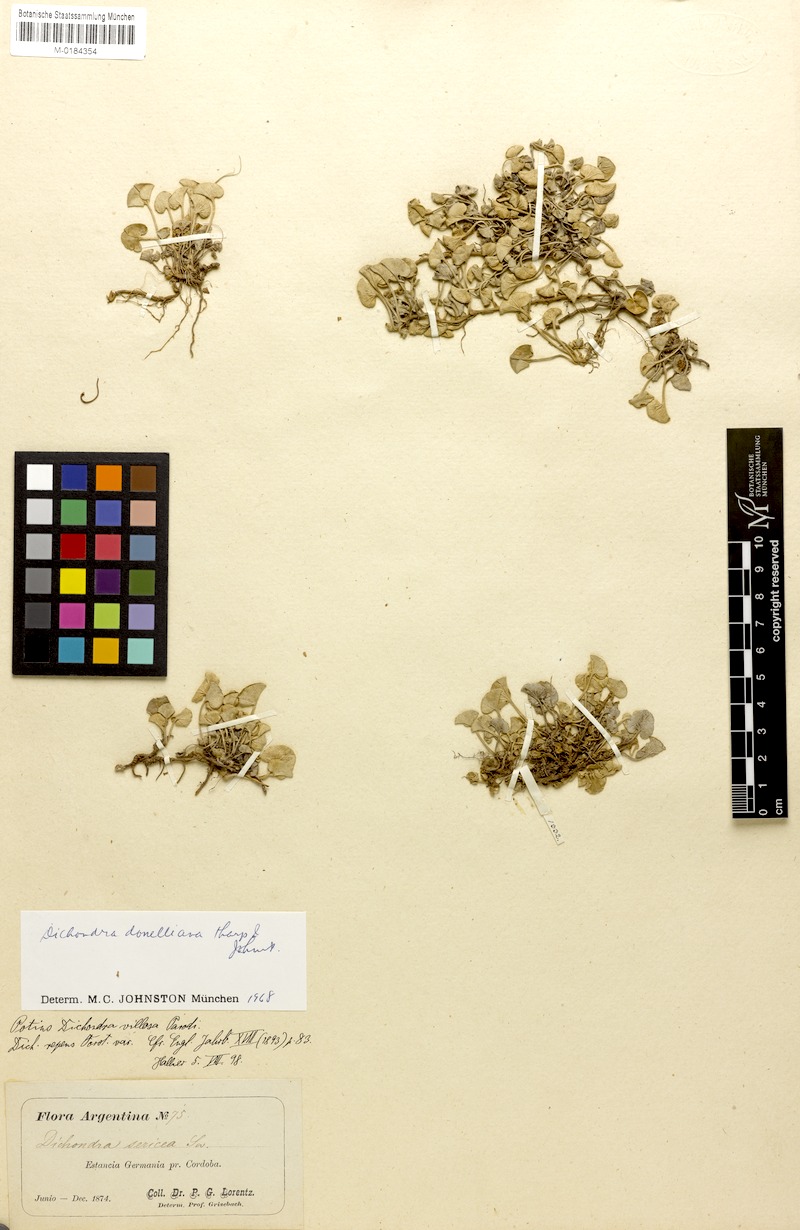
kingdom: Plantae
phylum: Tracheophyta
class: Magnoliopsida
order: Solanales
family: Convolvulaceae
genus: Dichondra
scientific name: Dichondra donelliana
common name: California ponysfoot
